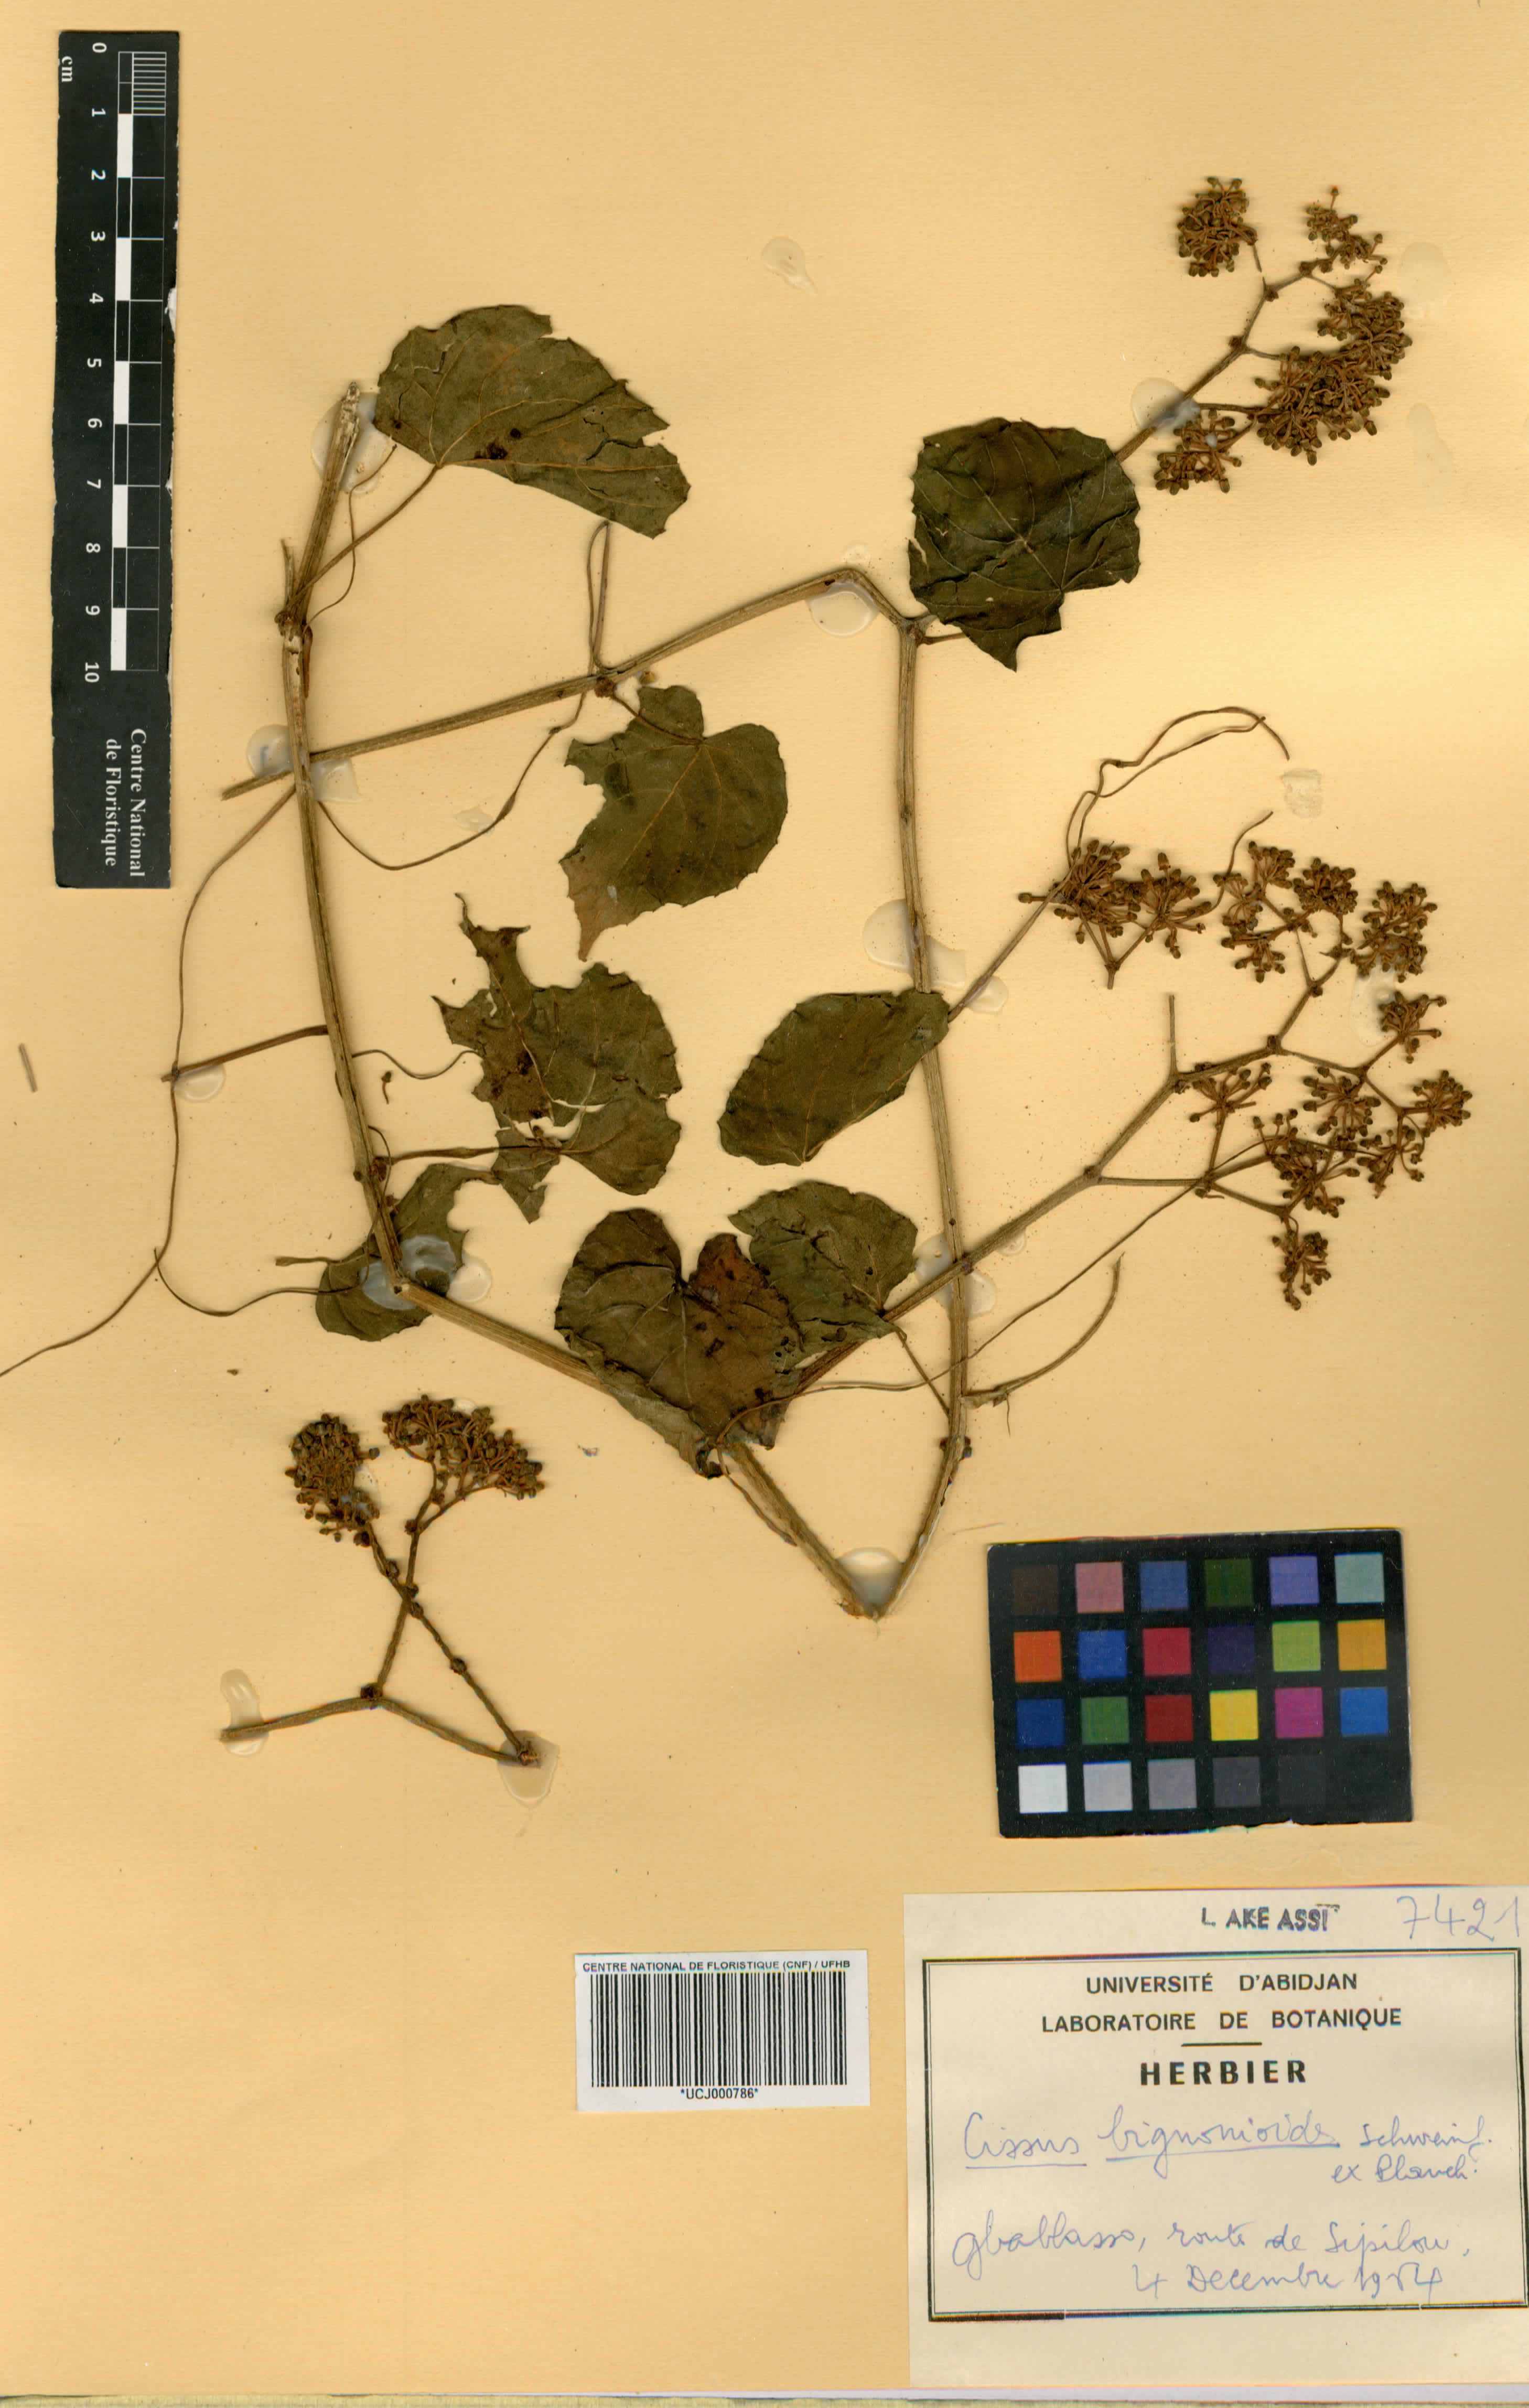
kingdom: Plantae
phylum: Tracheophyta
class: Magnoliopsida
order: Vitales
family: Vitaceae
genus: Cissus
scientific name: Cissus petiolata
